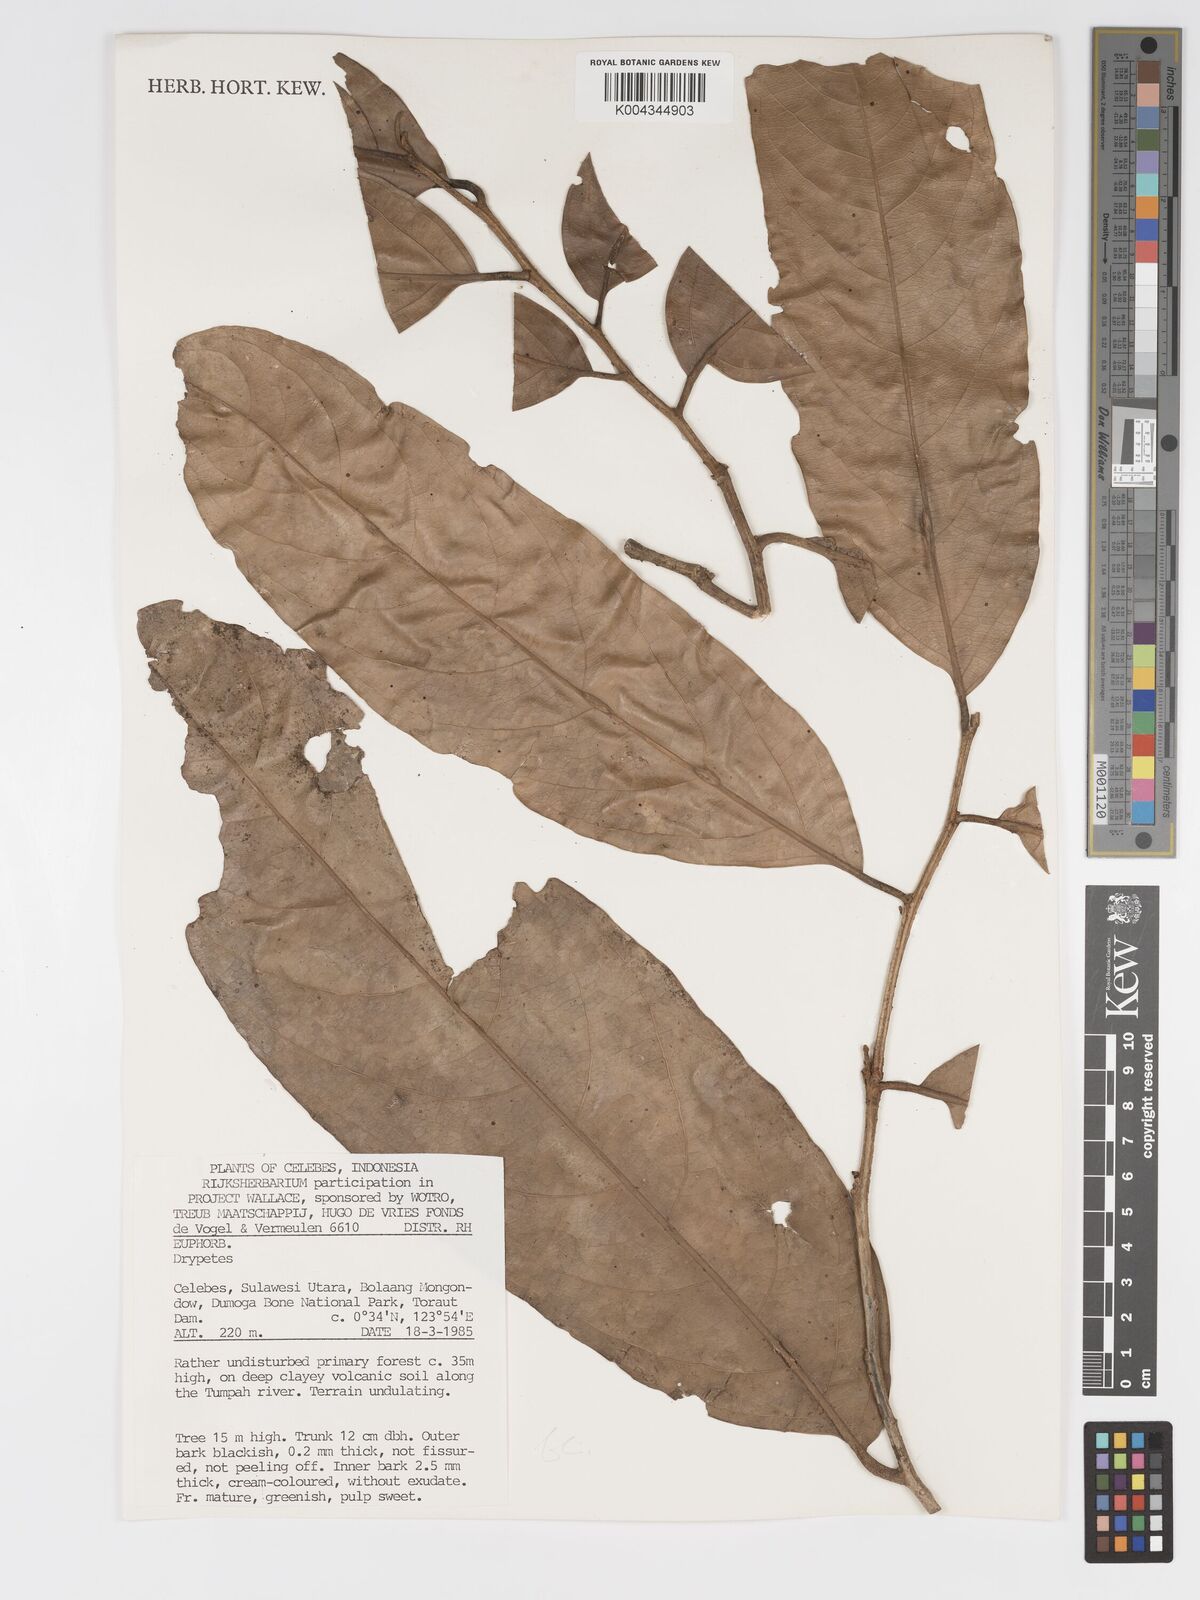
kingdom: Plantae
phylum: Tracheophyta
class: Magnoliopsida
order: Malpighiales
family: Putranjivaceae
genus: Drypetes
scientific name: Drypetes
